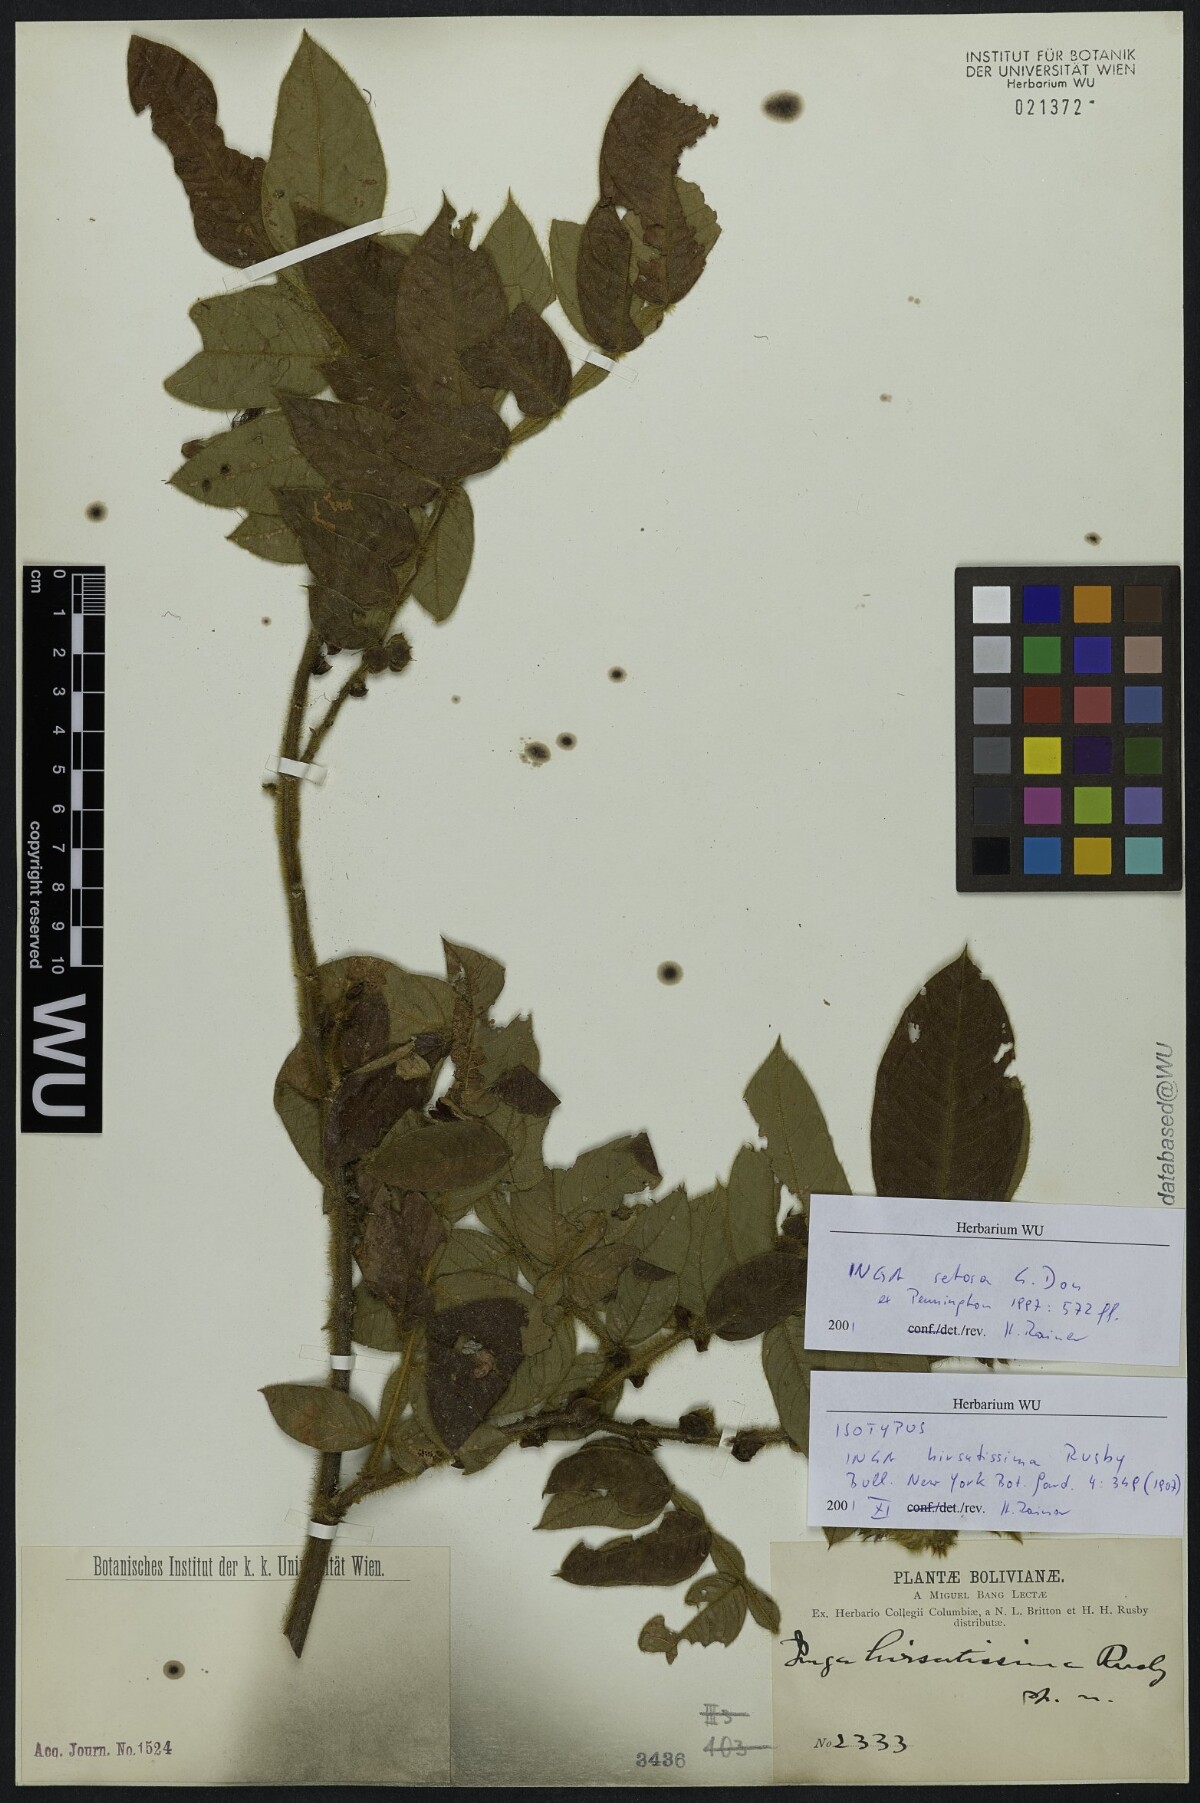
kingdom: Plantae
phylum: Tracheophyta
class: Magnoliopsida
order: Fabales
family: Fabaceae
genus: Inga
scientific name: Inga setosa
